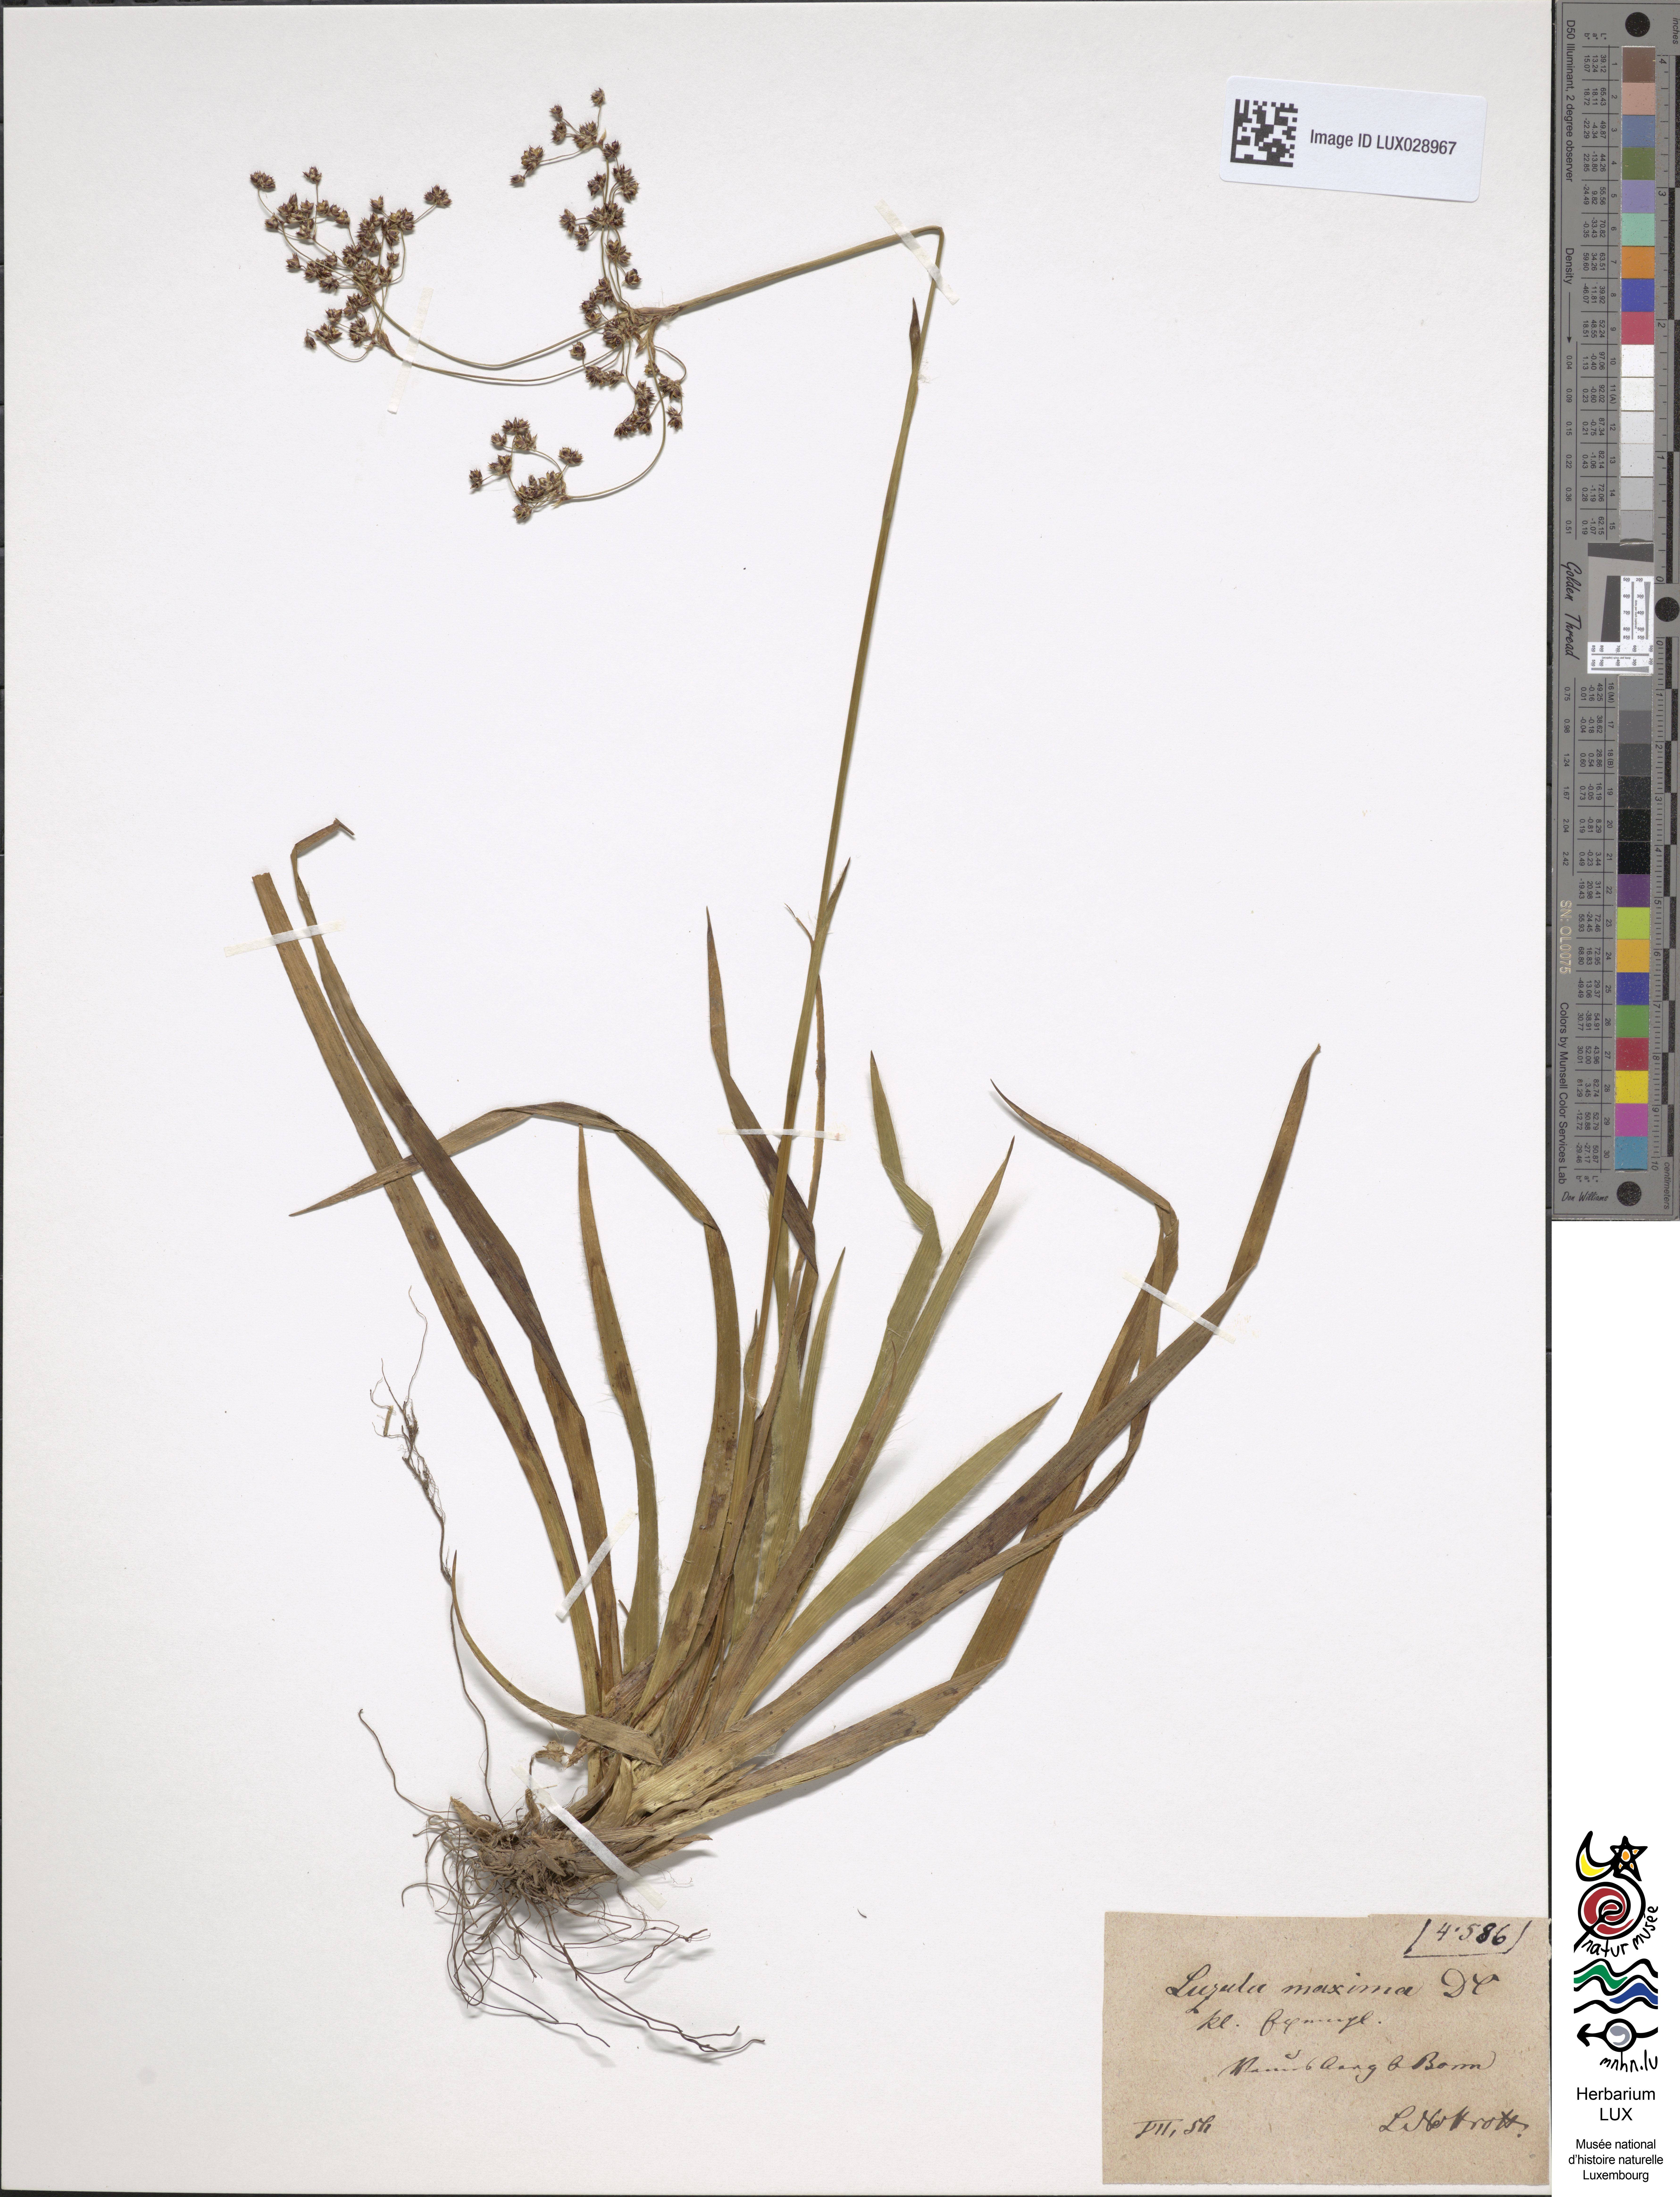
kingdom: Plantae
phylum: Tracheophyta
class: Liliopsida
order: Poales
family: Juncaceae
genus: Luzula
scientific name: Luzula sylvatica
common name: Great wood-rush
